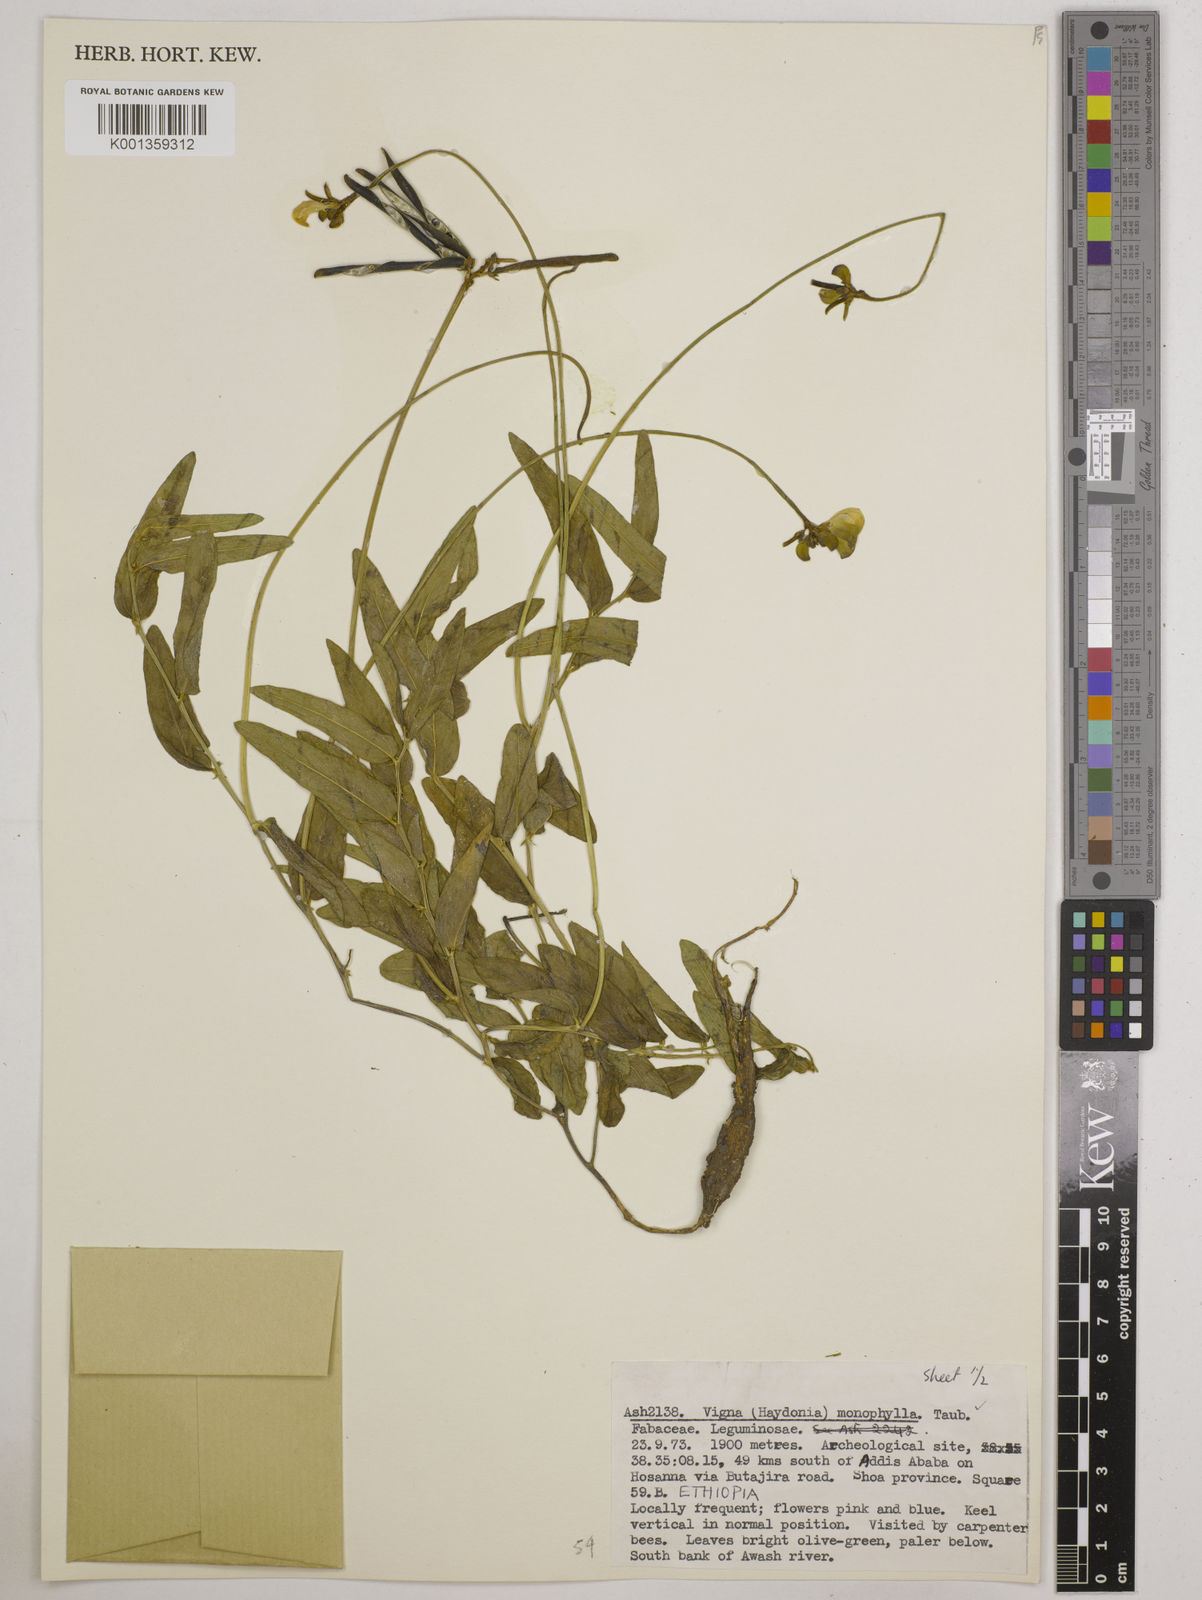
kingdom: Plantae
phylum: Tracheophyta
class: Magnoliopsida
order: Fabales
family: Fabaceae
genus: Vigna
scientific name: Vigna monophylla
